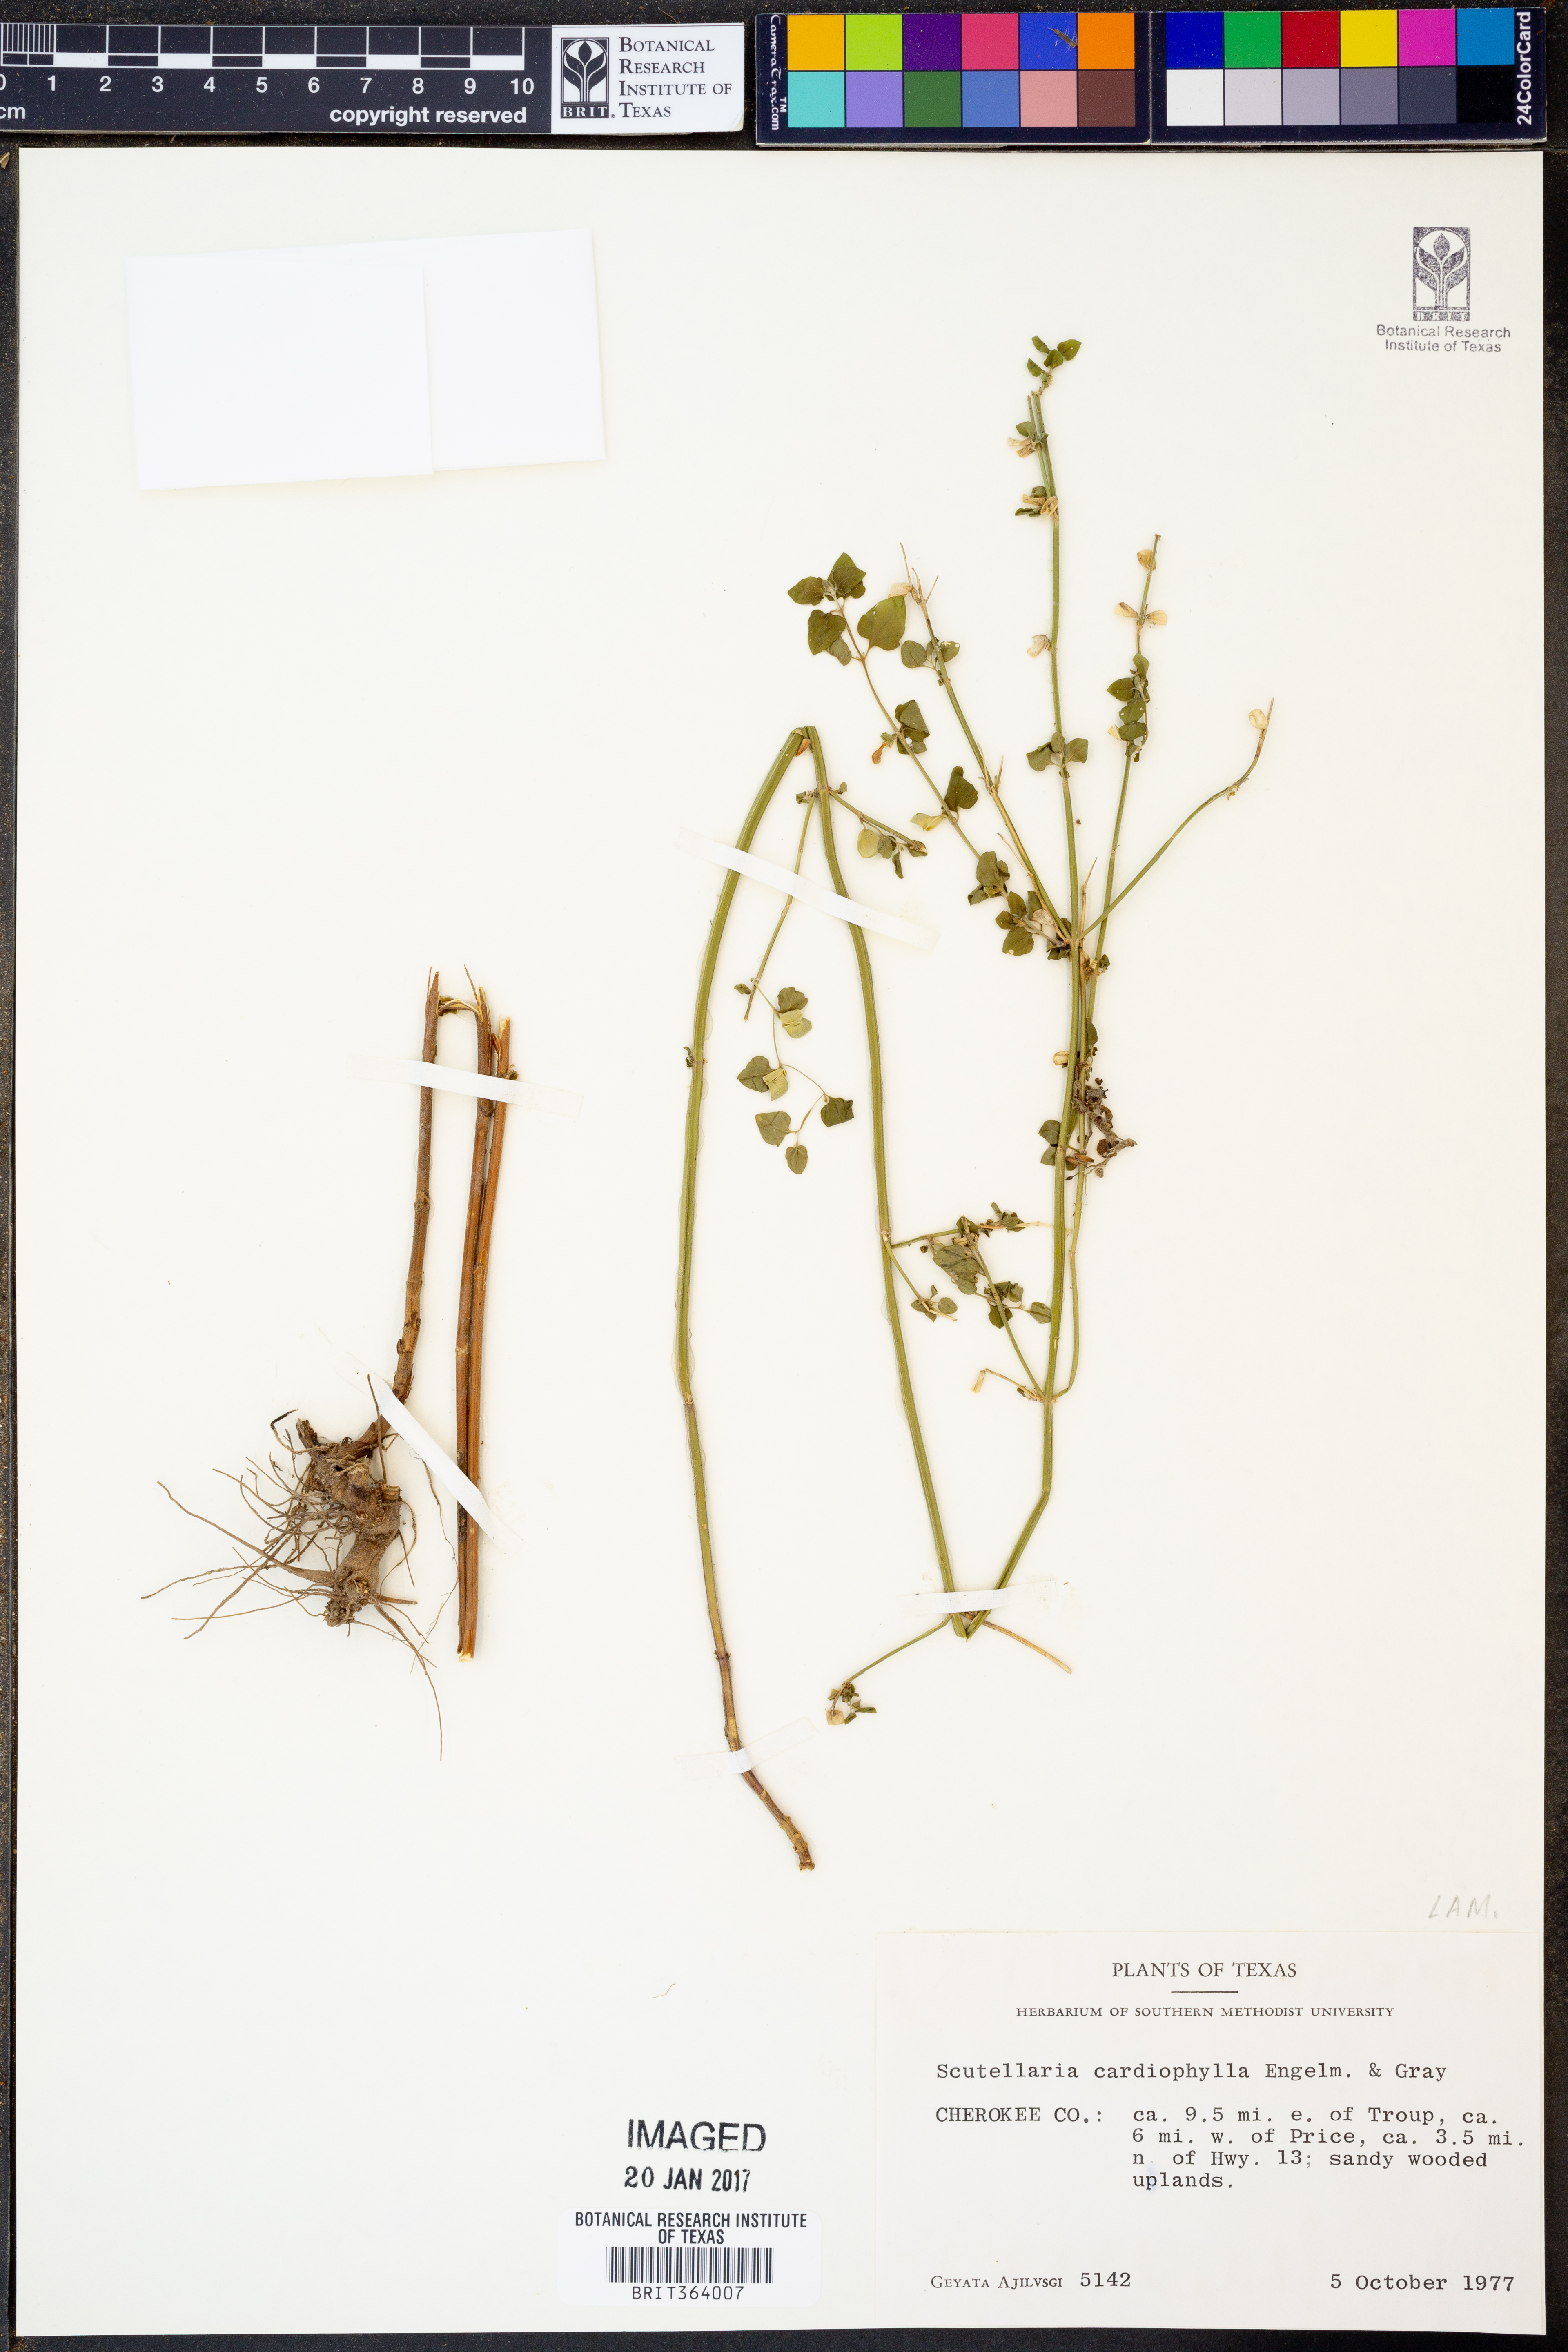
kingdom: Plantae
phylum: Tracheophyta
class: Magnoliopsida
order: Lamiales
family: Lamiaceae
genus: Scutellaria
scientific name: Scutellaria cardiophylla
